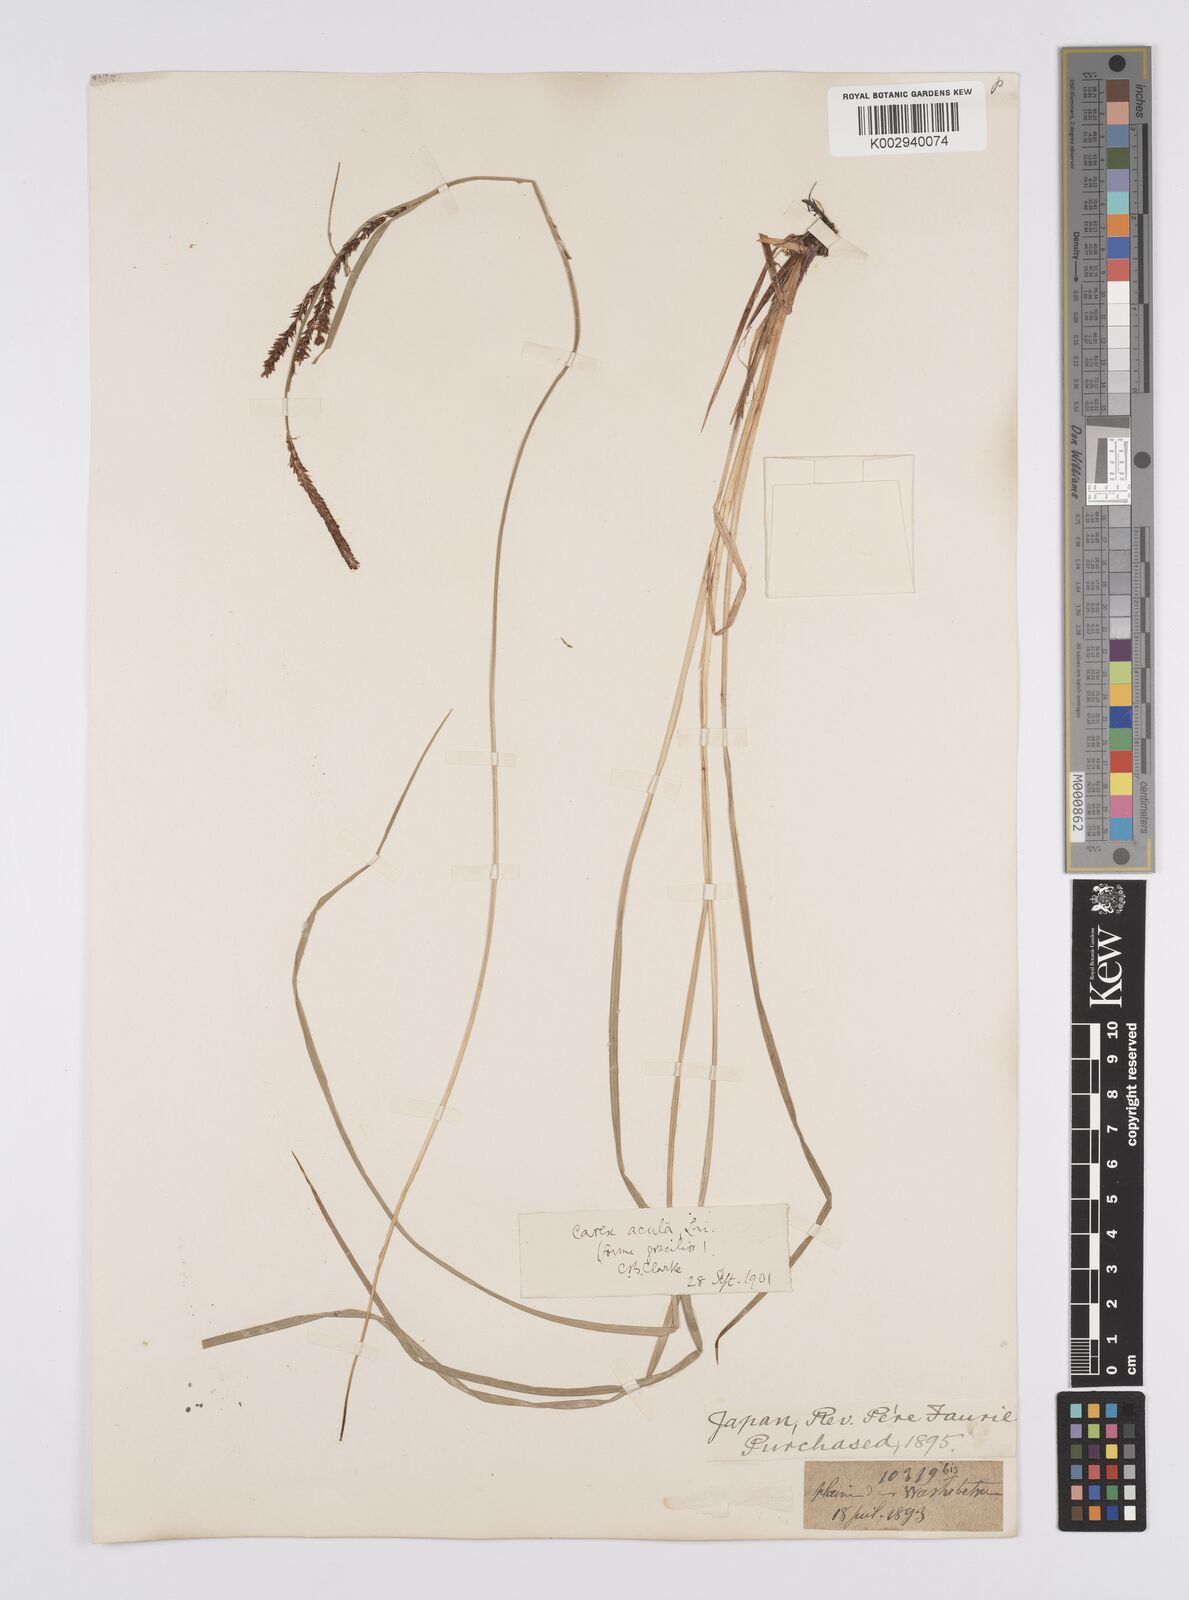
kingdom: Plantae
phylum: Tracheophyta
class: Liliopsida
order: Poales
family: Cyperaceae
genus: Carex
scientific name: Carex thunbergii
